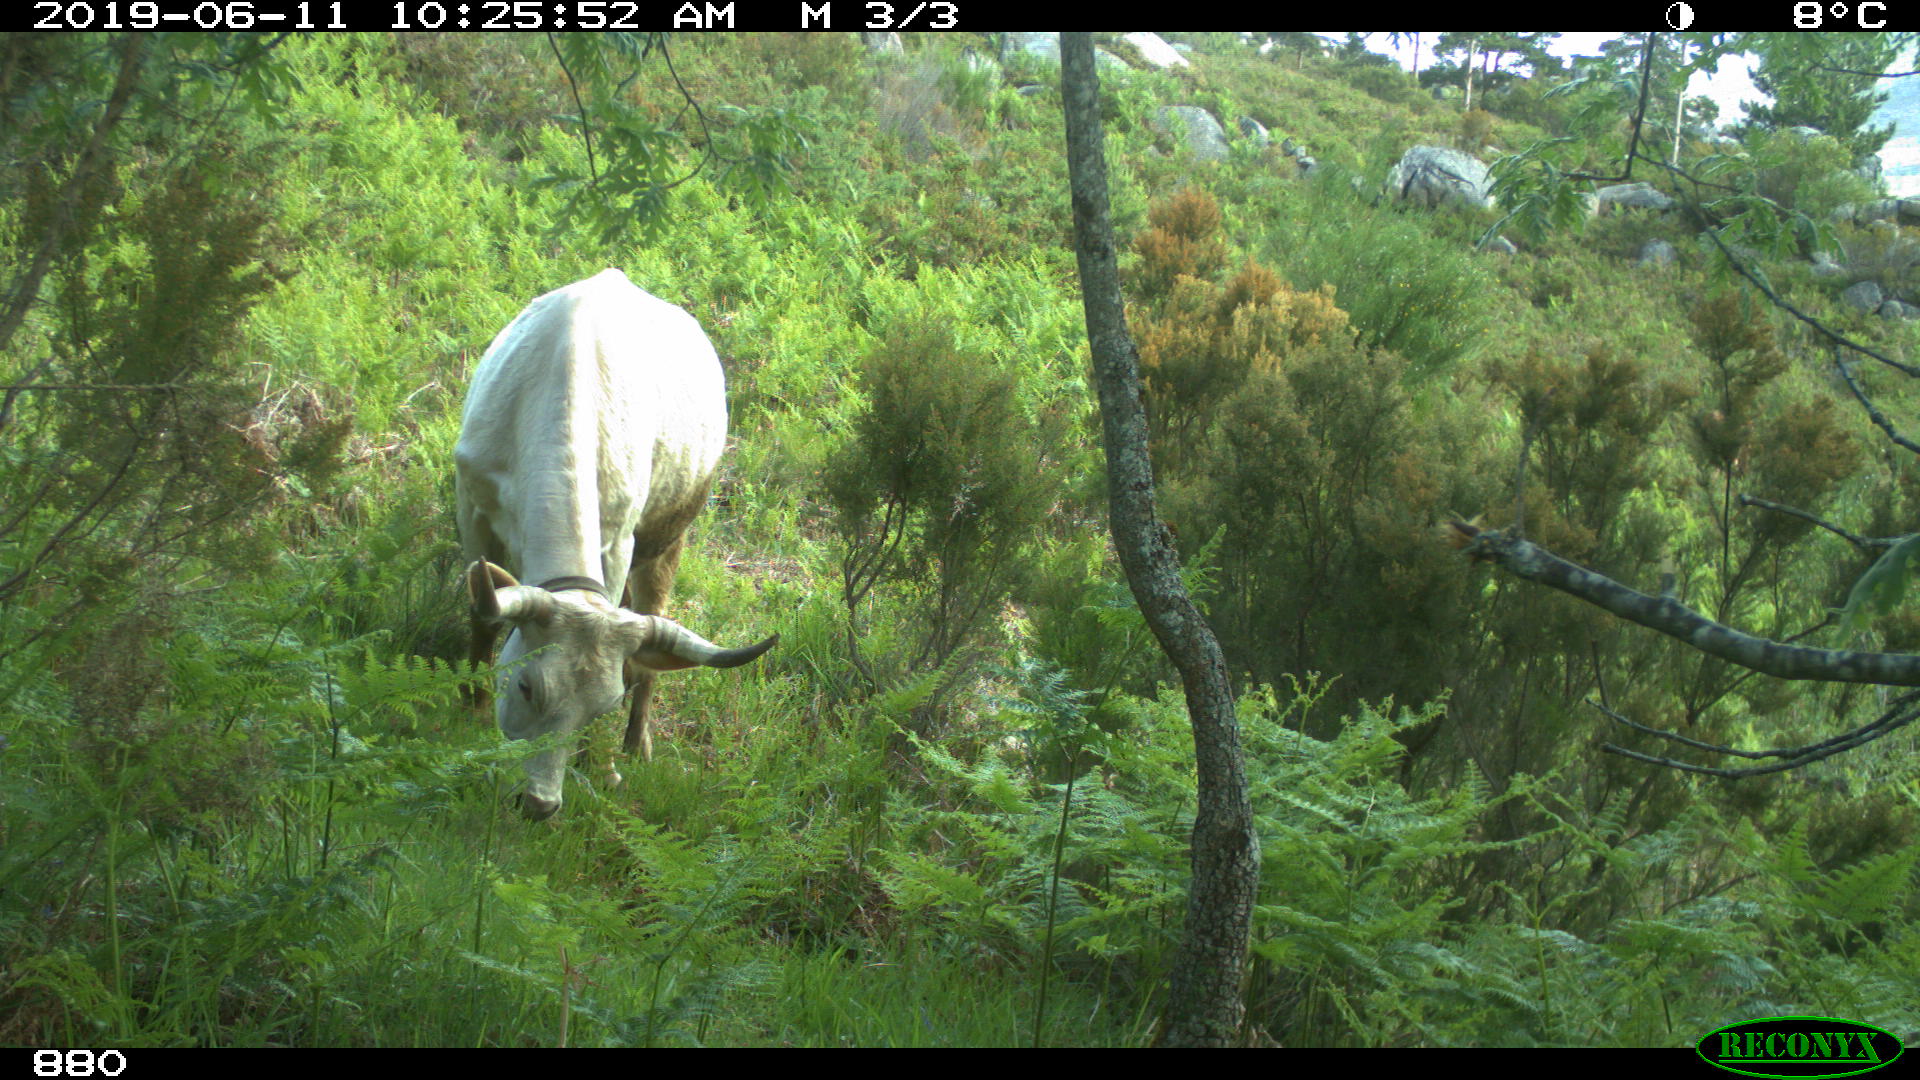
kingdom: Animalia
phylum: Chordata
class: Mammalia
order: Artiodactyla
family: Bovidae
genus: Bos
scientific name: Bos taurus
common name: Domesticated cattle
